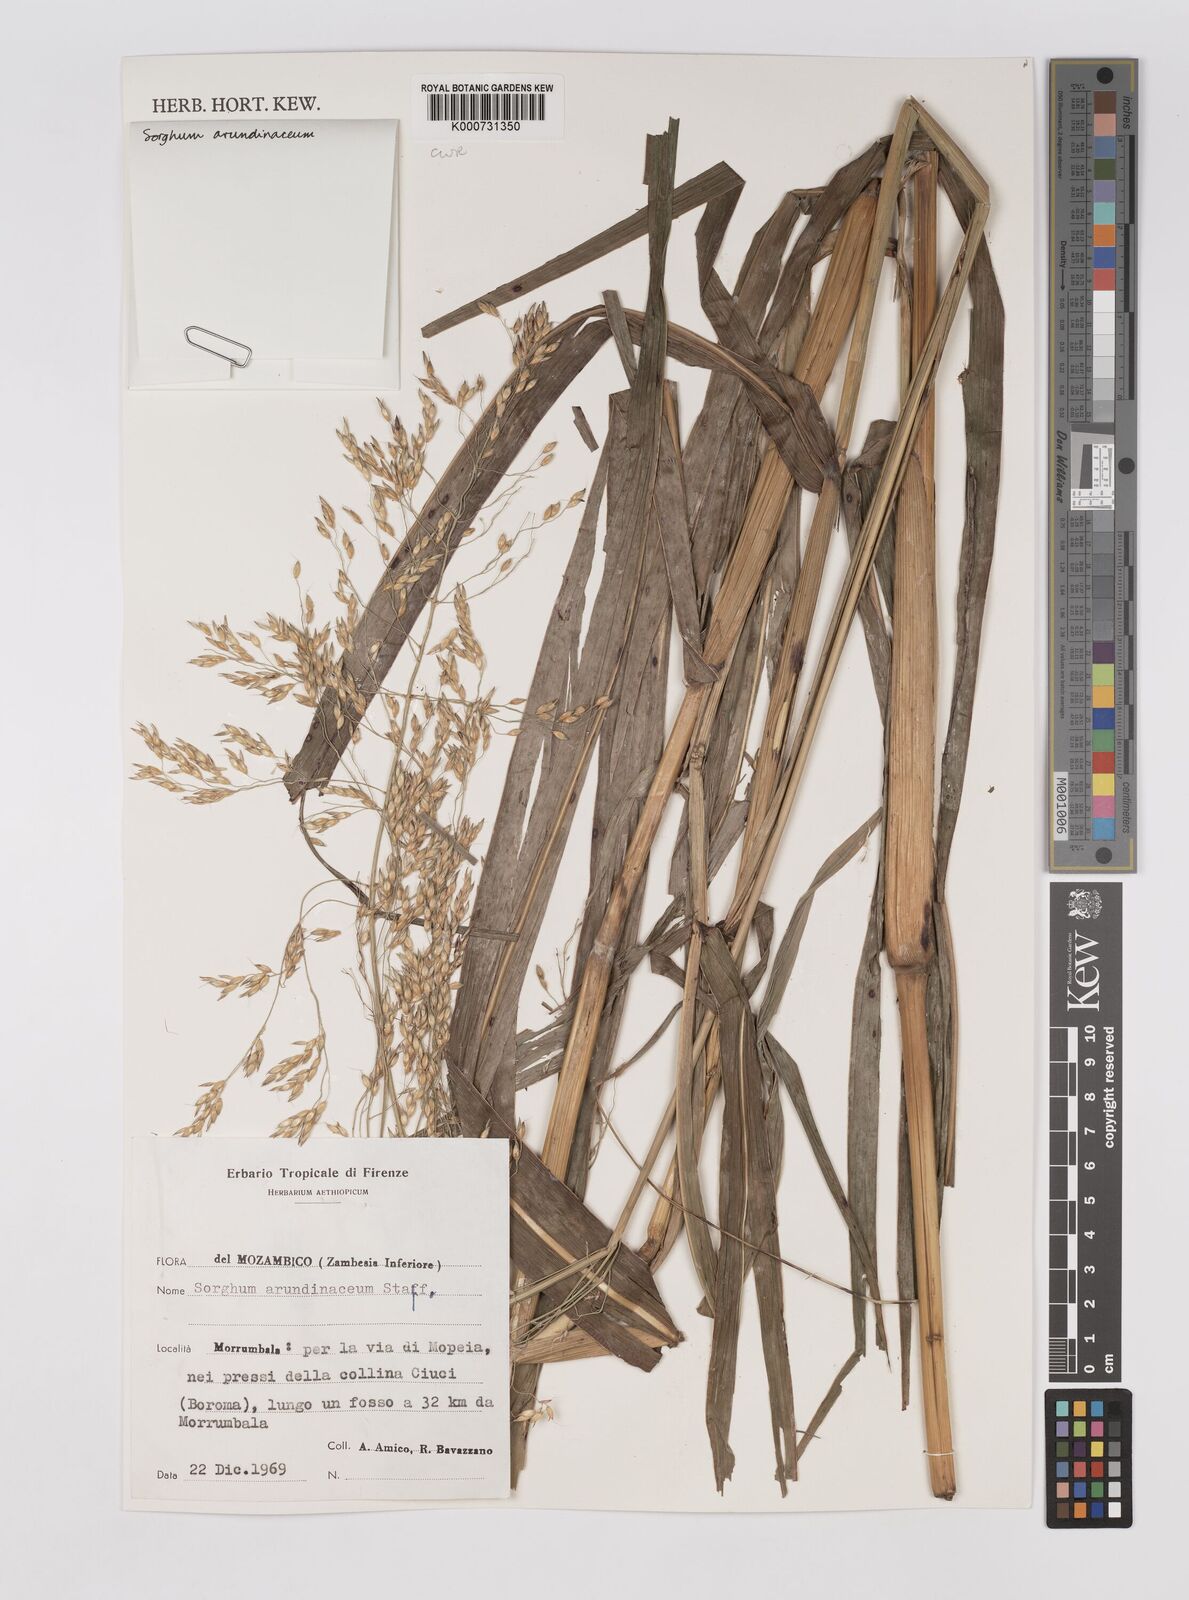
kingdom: Plantae
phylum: Tracheophyta
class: Liliopsida
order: Poales
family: Poaceae
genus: Sorghum
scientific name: Sorghum arundinaceum
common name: Sorghum
